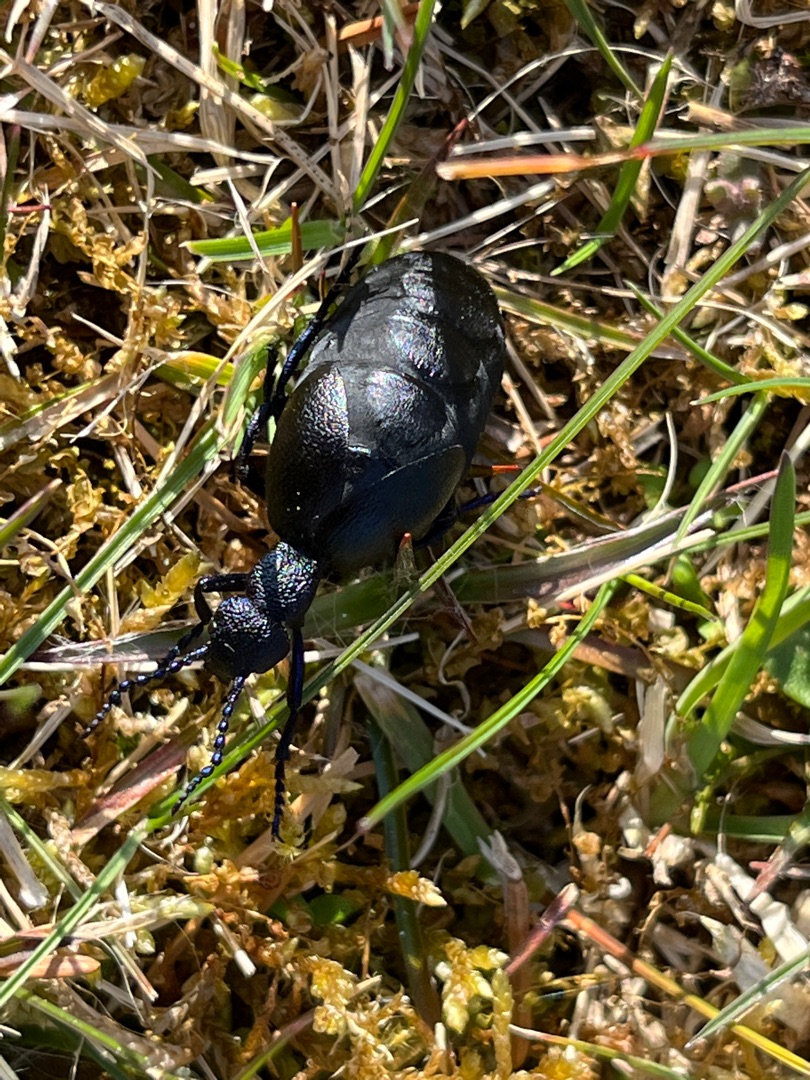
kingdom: Animalia
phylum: Arthropoda
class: Insecta
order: Coleoptera
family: Meloidae
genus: Meloe
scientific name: Meloe proscarabaeus
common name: Sort oliebille
